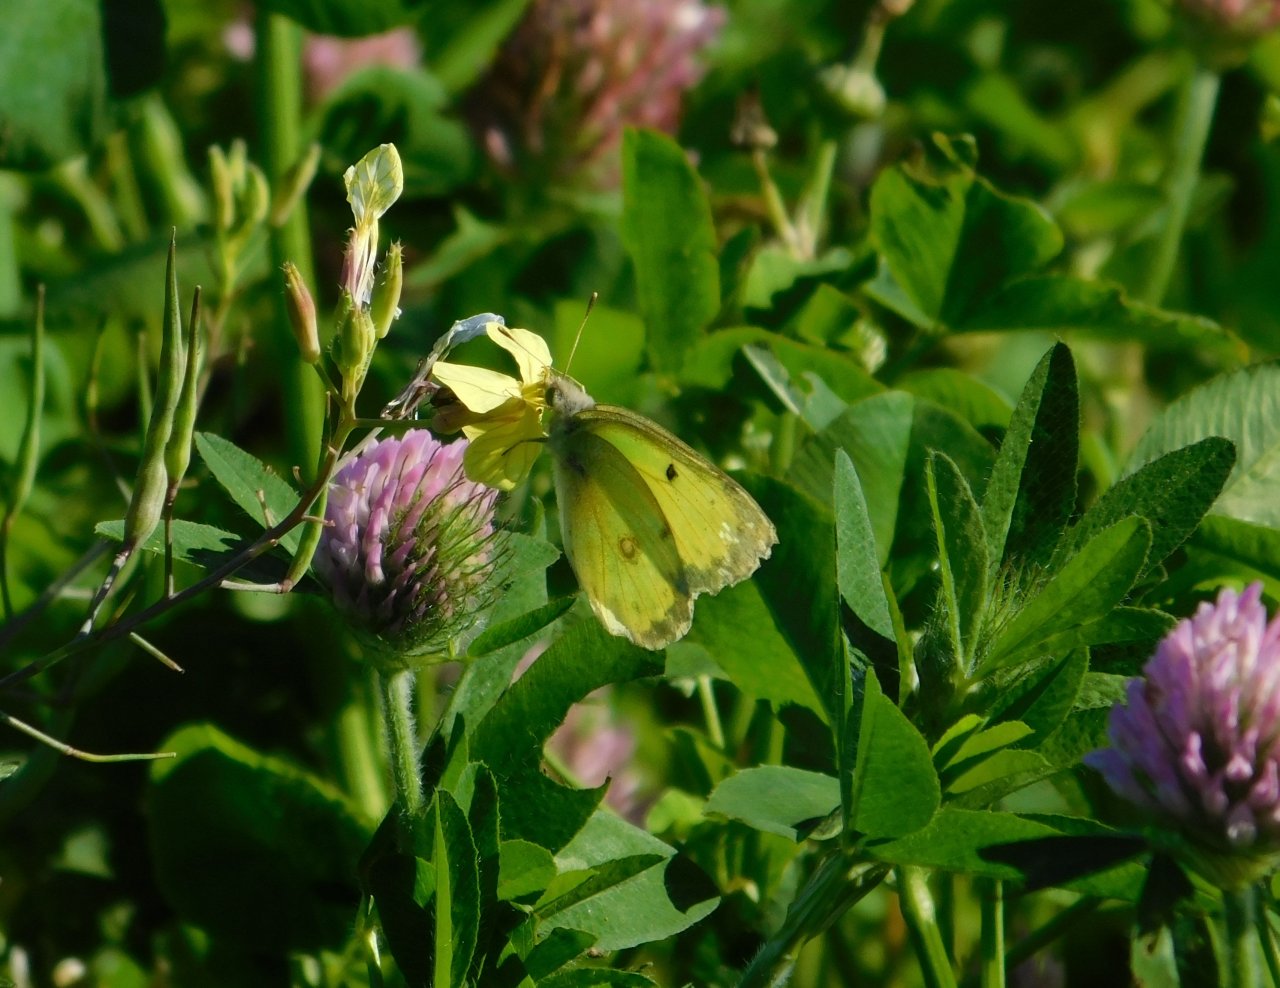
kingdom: Animalia
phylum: Arthropoda
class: Insecta
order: Lepidoptera
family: Pieridae
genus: Colias
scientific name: Colias philodice
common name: Clouded Sulphur
